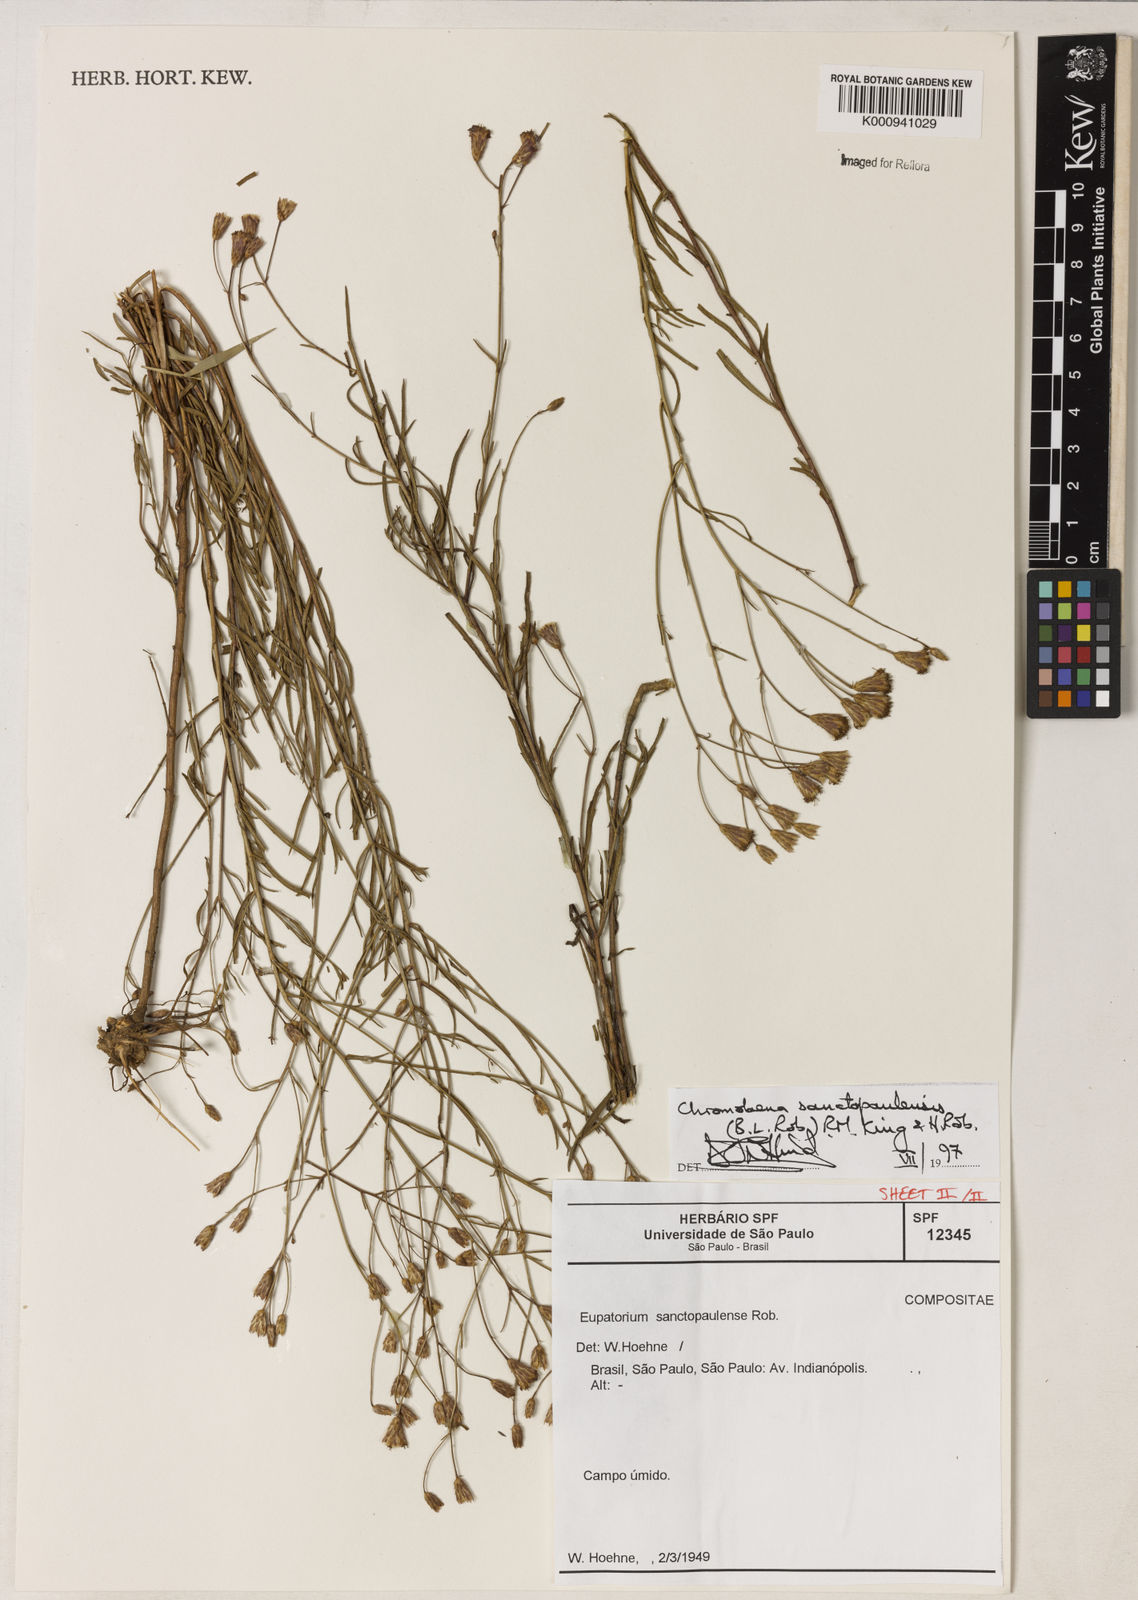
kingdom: Plantae
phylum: Tracheophyta
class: Magnoliopsida
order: Asterales
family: Asteraceae
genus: Chromolaena
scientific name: Chromolaena
